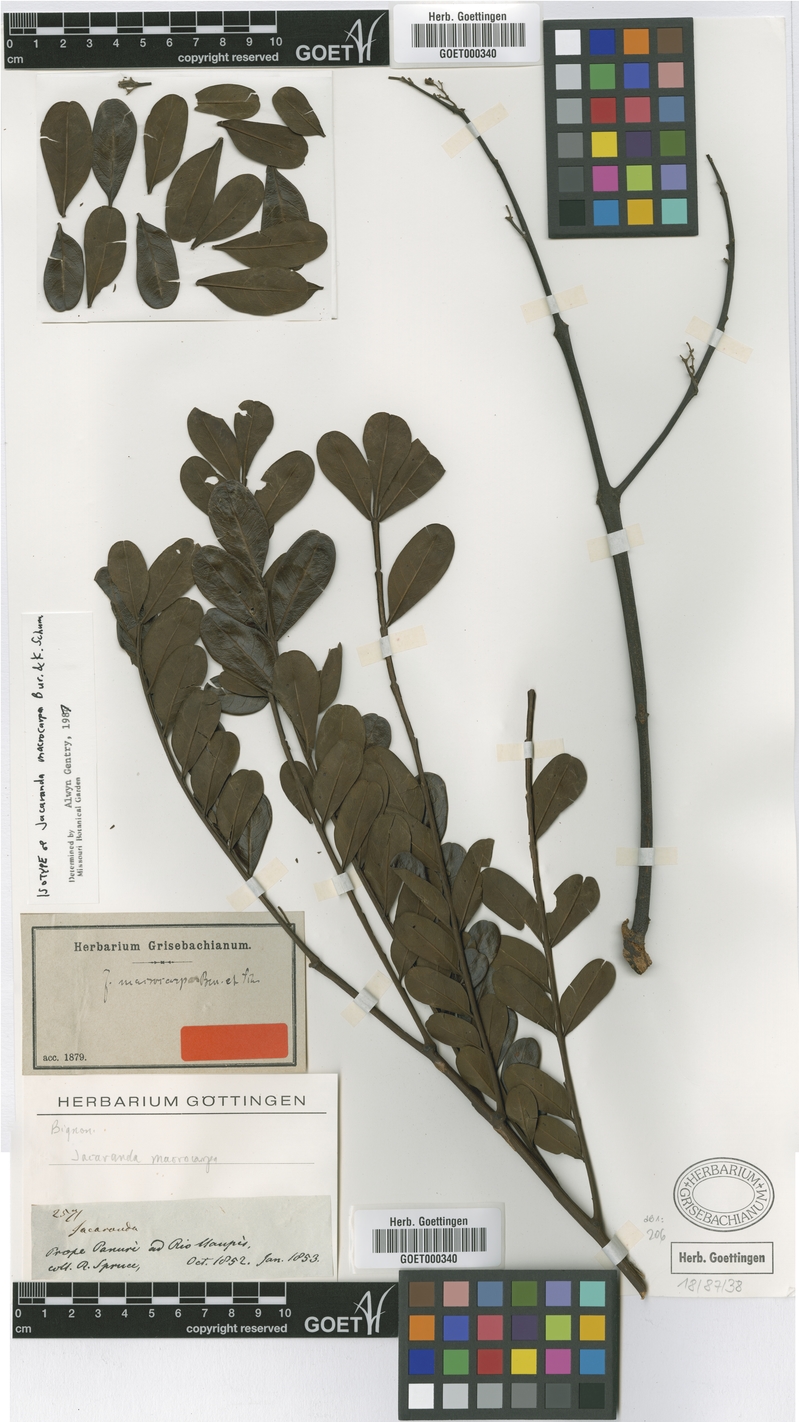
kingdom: Plantae
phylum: Tracheophyta
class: Magnoliopsida
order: Lamiales
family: Bignoniaceae
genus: Jacaranda
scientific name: Jacaranda macrocarpa
